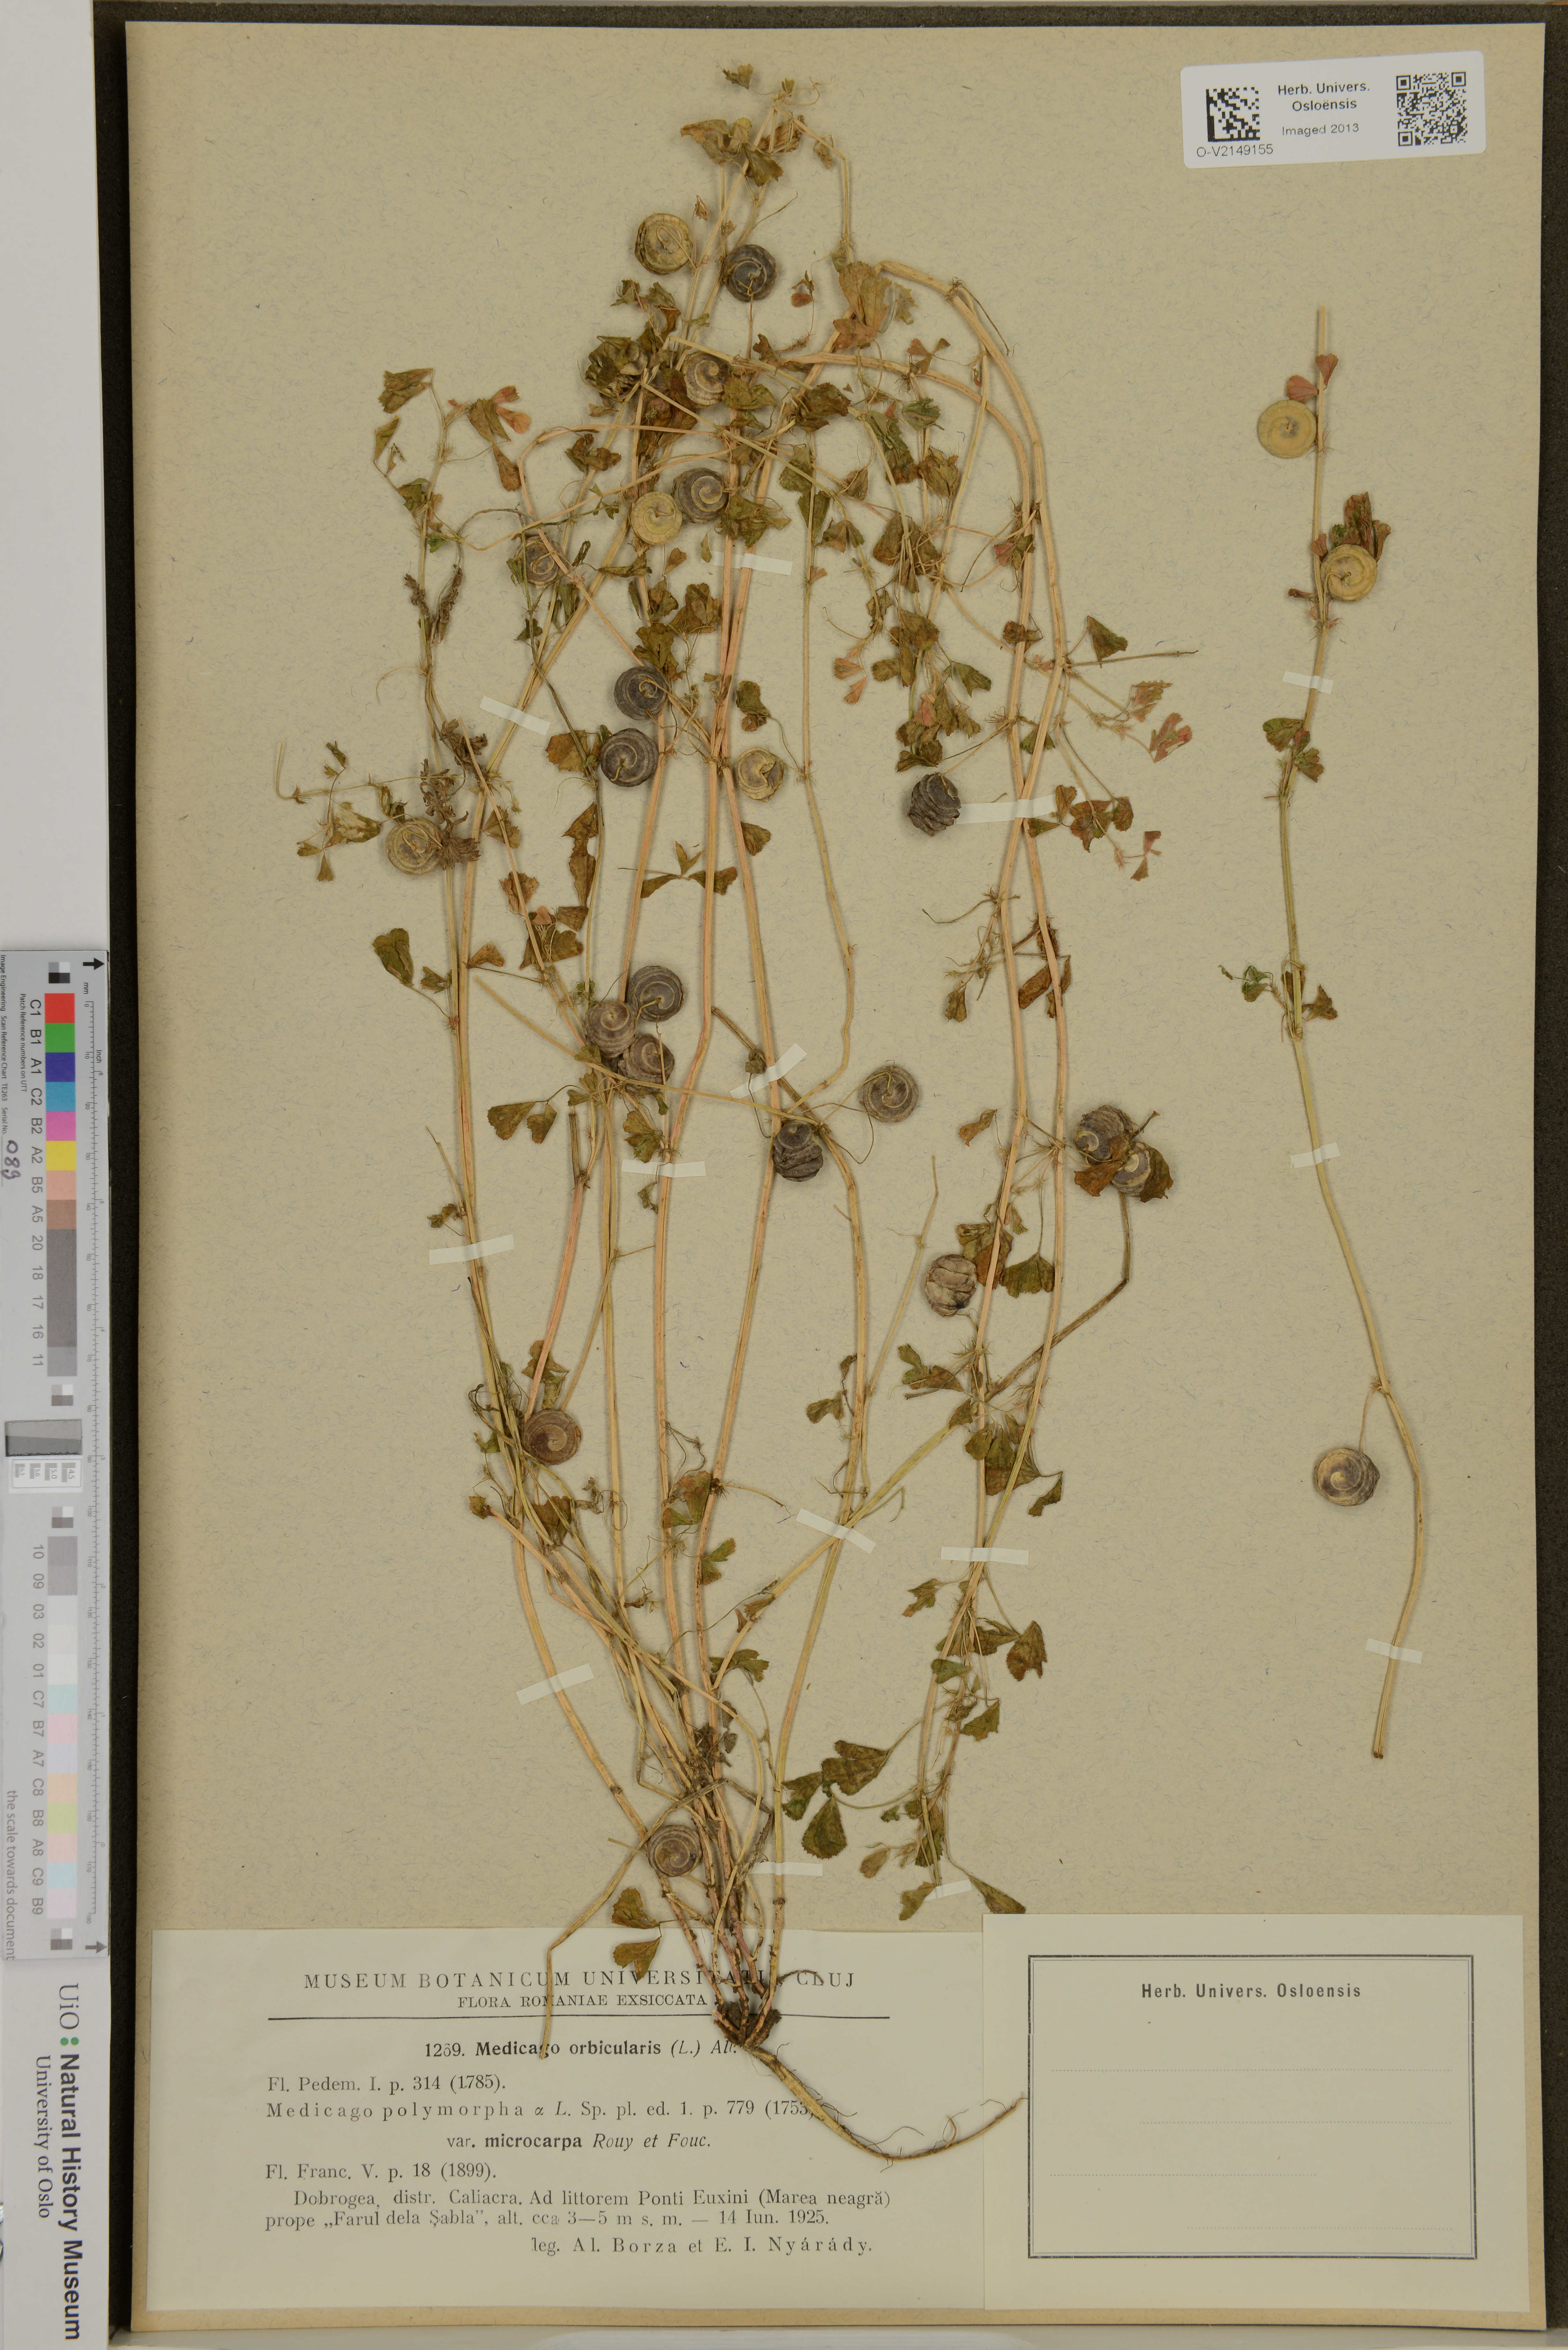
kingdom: Plantae
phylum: Tracheophyta
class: Magnoliopsida
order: Fabales
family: Fabaceae
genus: Medicago
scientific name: Medicago orbicularis
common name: Button medick
